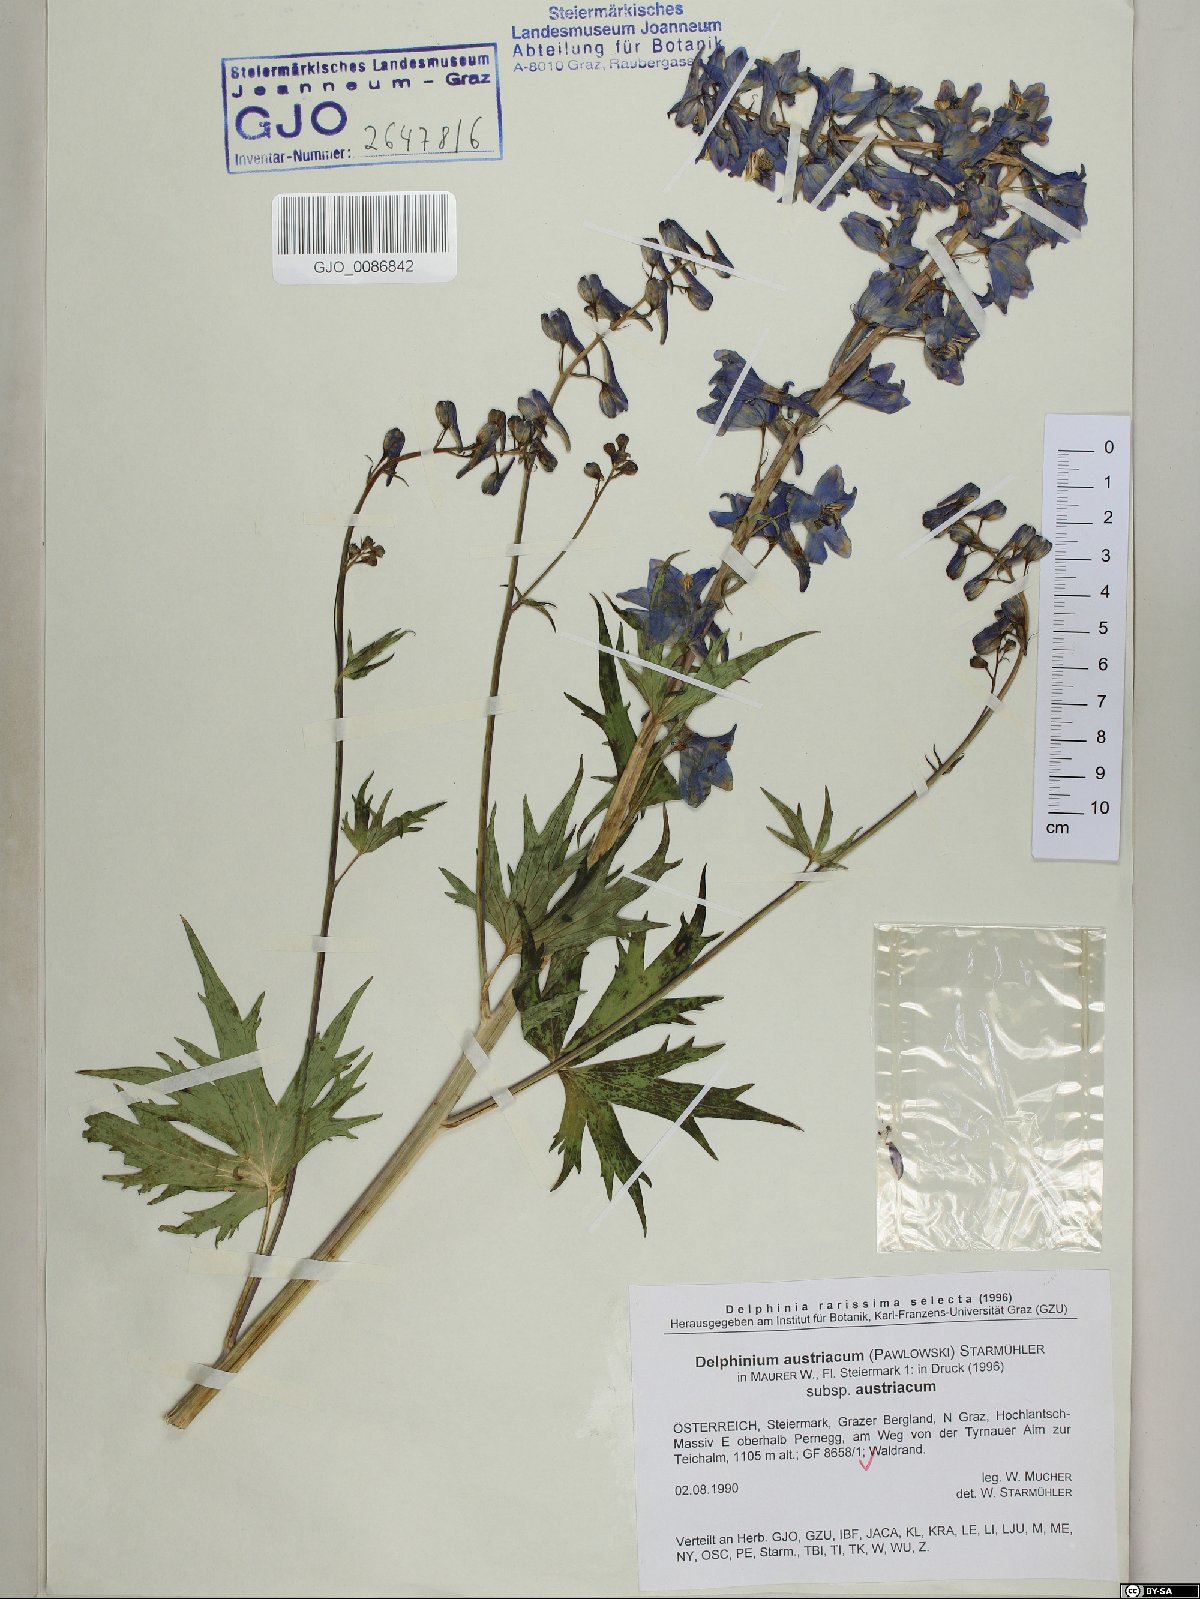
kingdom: Plantae
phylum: Tracheophyta
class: Magnoliopsida
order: Ranunculales
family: Ranunculaceae
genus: Delphinium
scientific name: Delphinium austriacum
